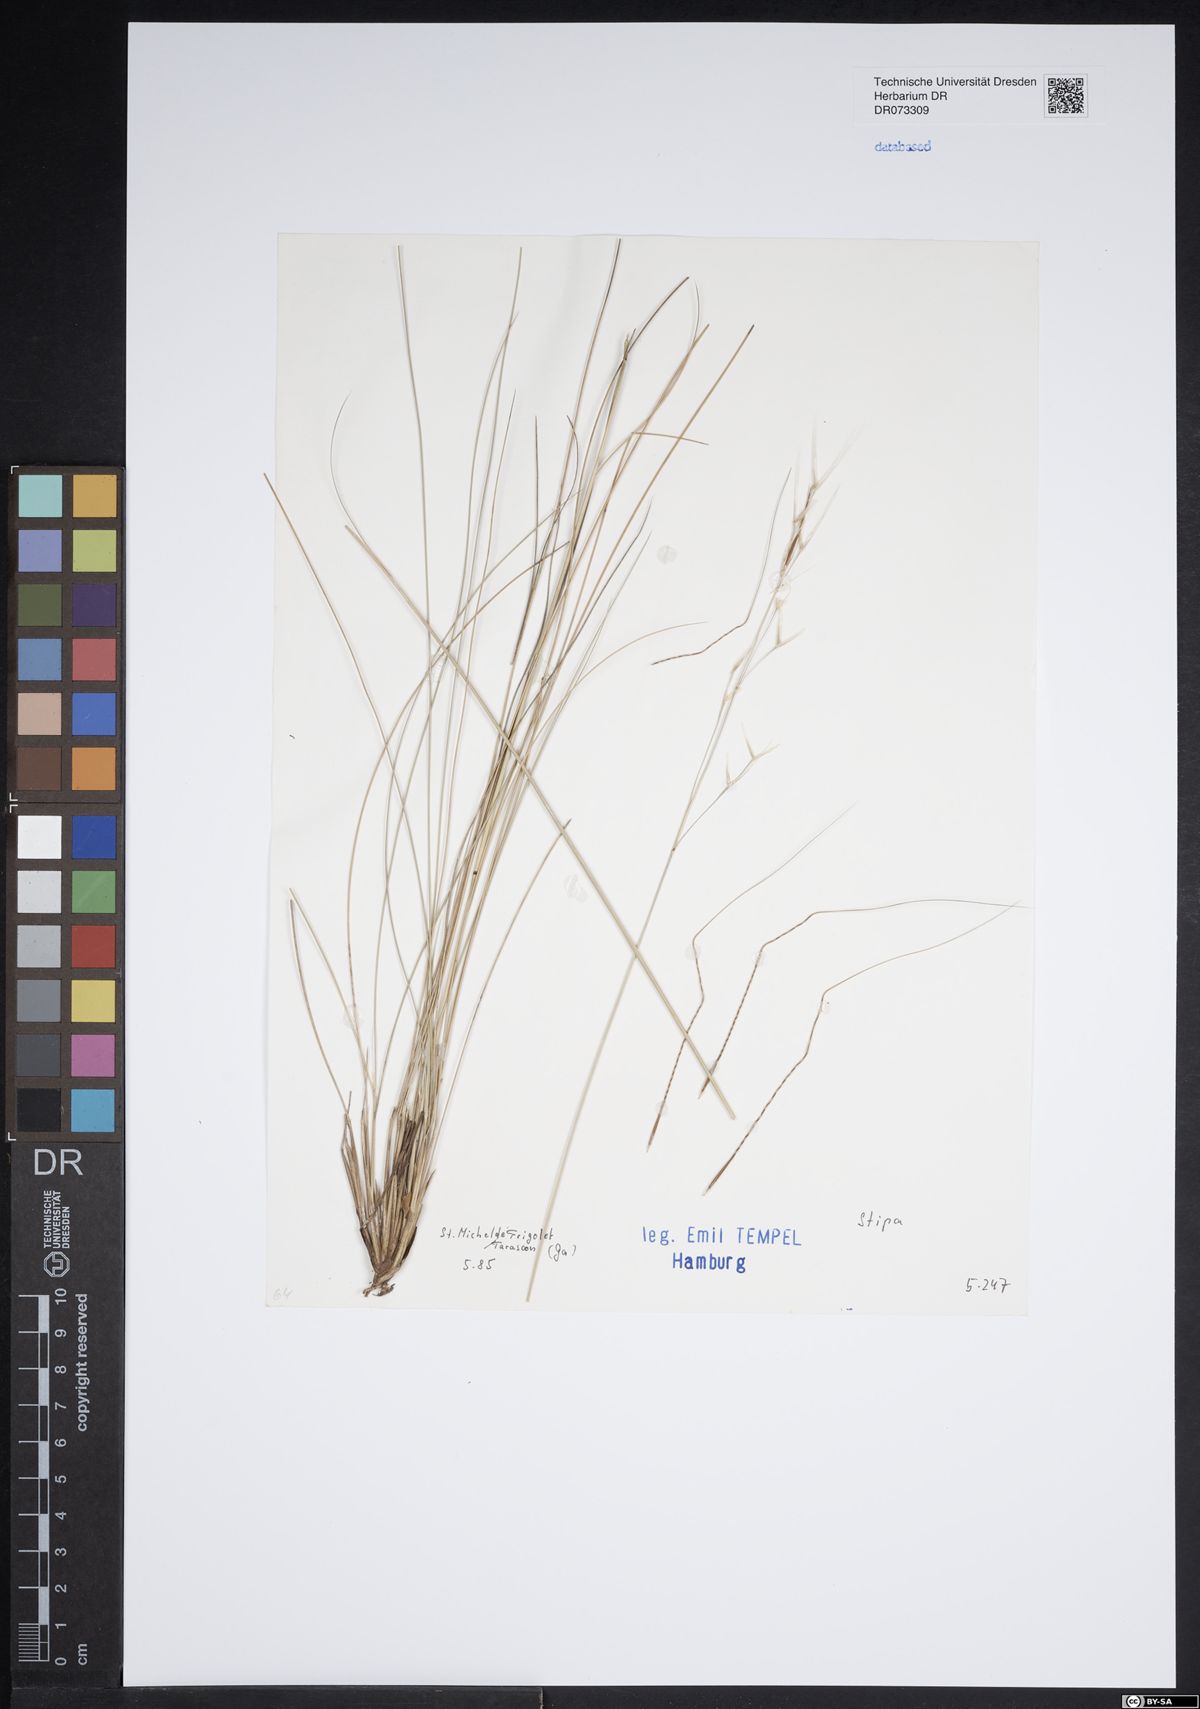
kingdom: Plantae
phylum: Tracheophyta
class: Liliopsida
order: Poales
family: Poaceae
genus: Stipa
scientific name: Stipa
